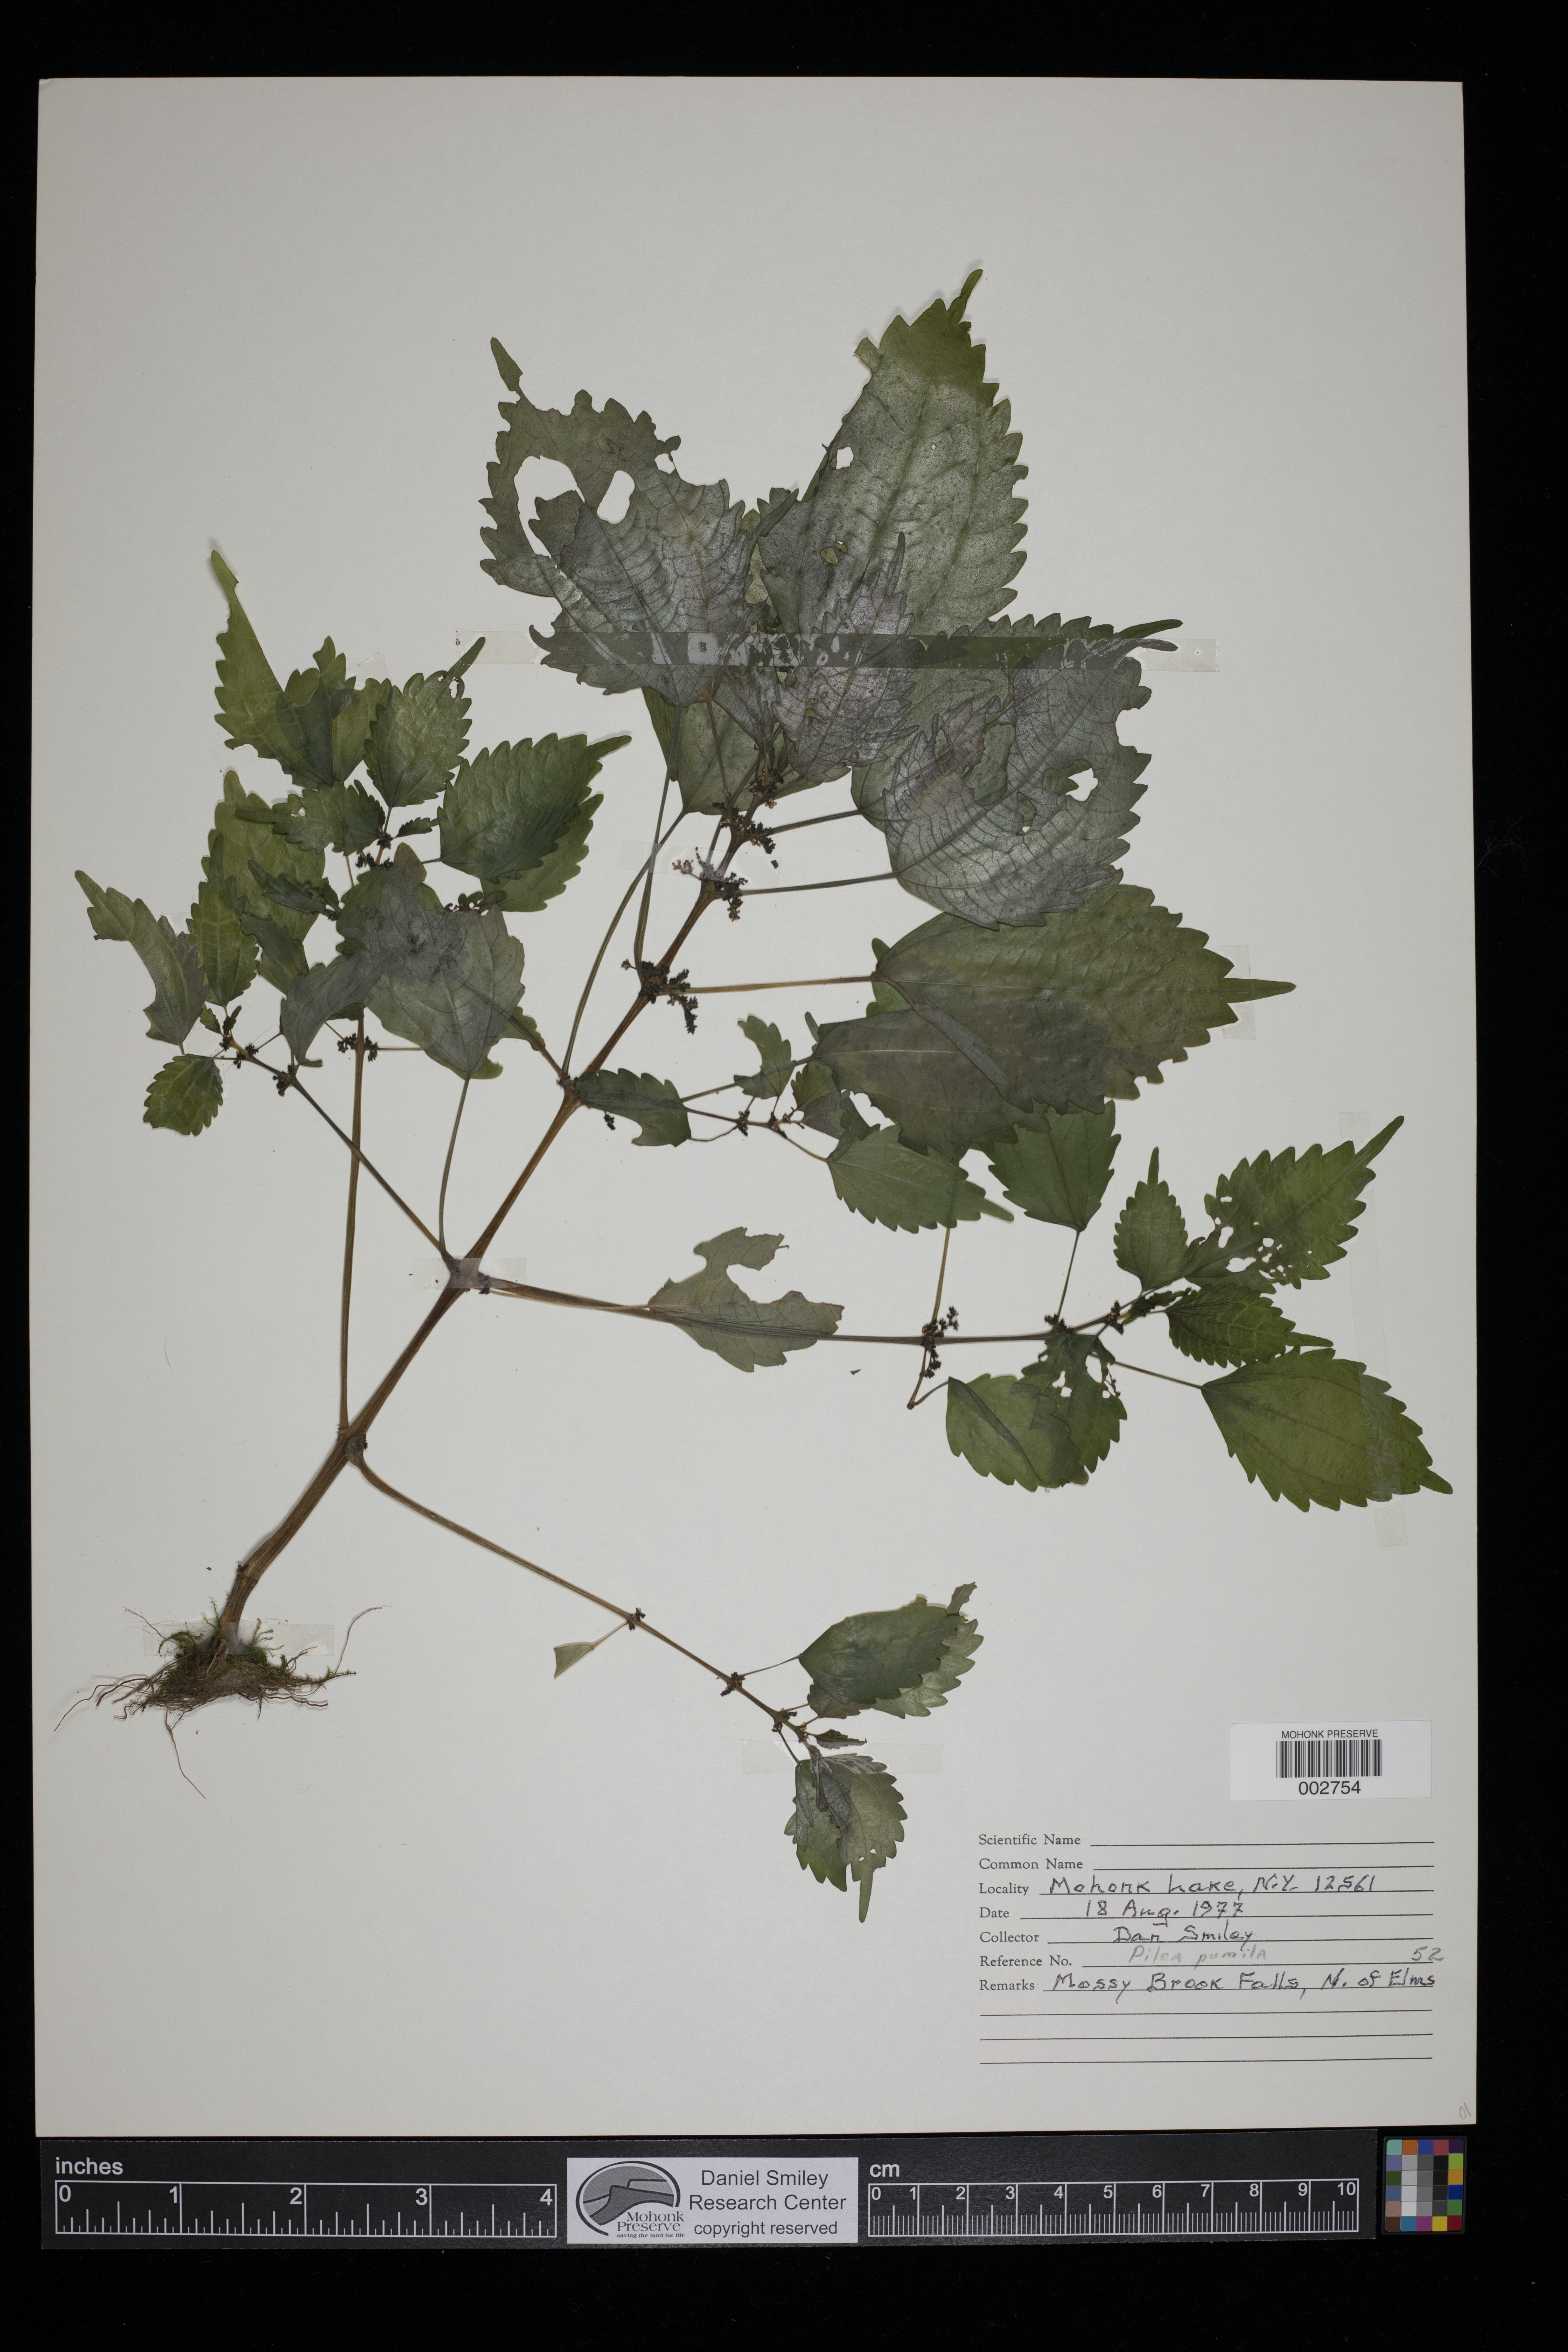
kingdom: Plantae
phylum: Tracheophyta
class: Magnoliopsida
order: Rosales
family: Urticaceae
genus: Pilea
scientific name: Pilea pumila
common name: Clearweed
